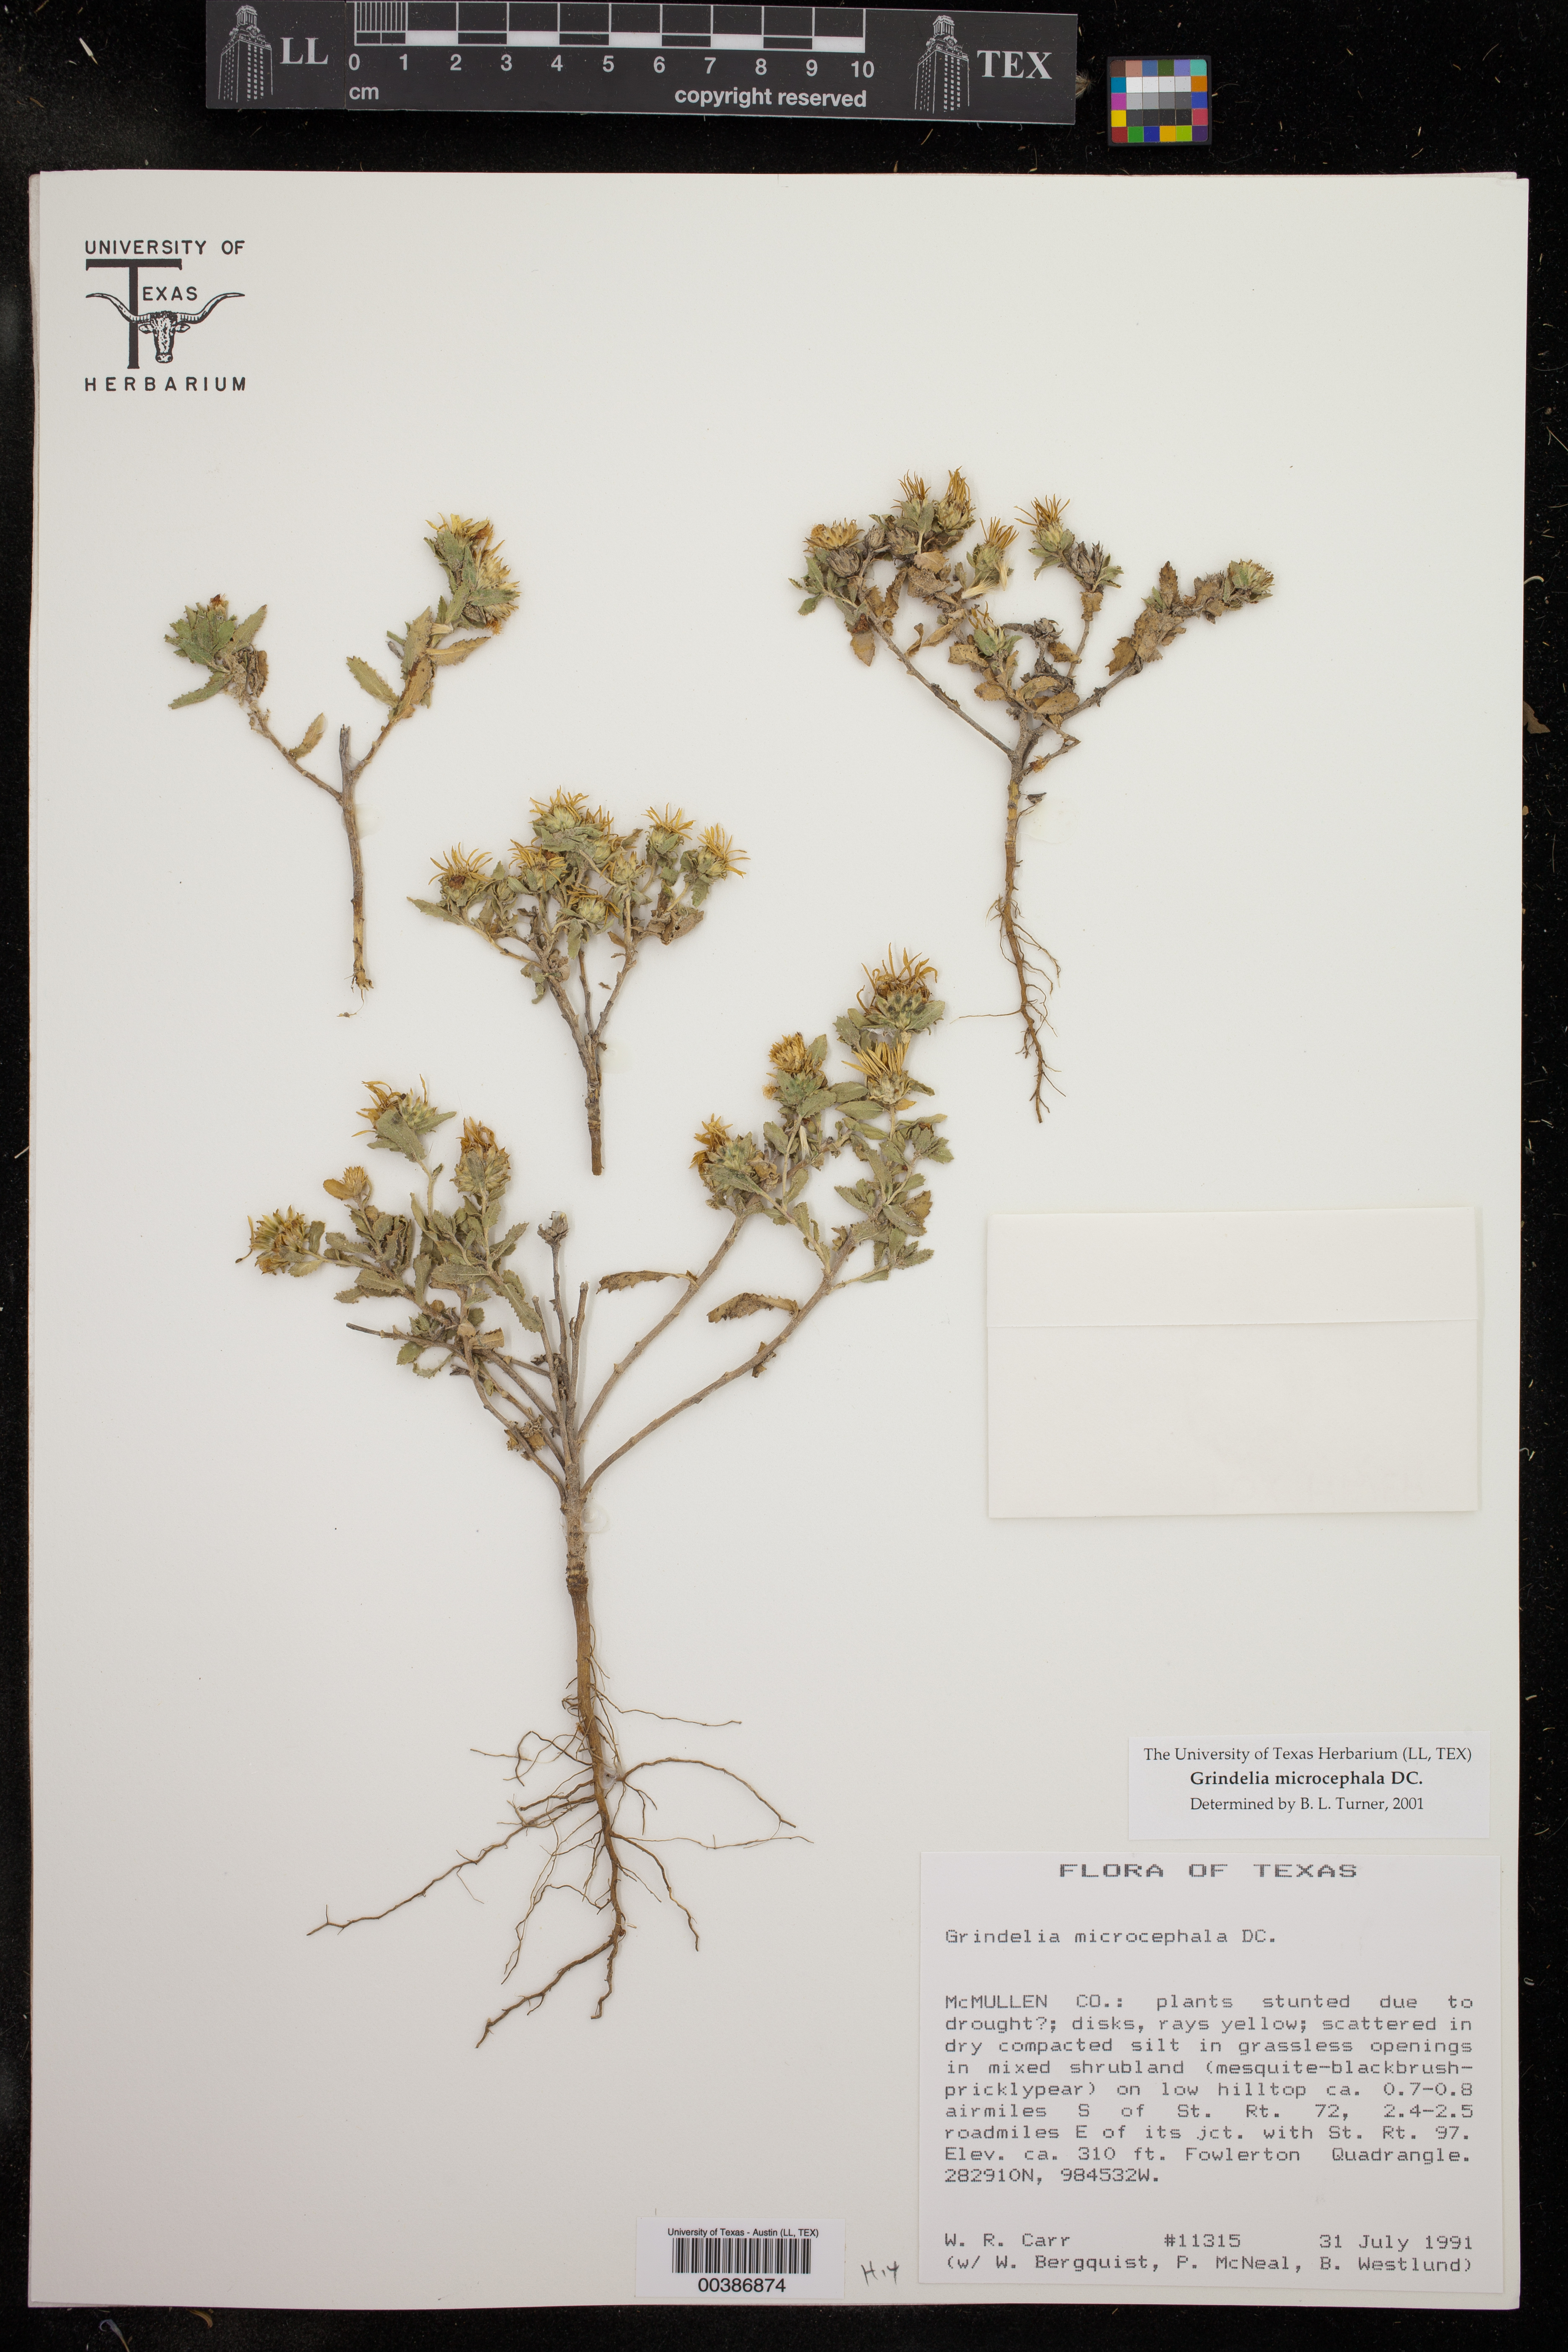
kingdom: Plantae
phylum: Tracheophyta
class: Magnoliopsida
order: Asterales
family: Asteraceae
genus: Grindelia
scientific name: Grindelia microcephala
